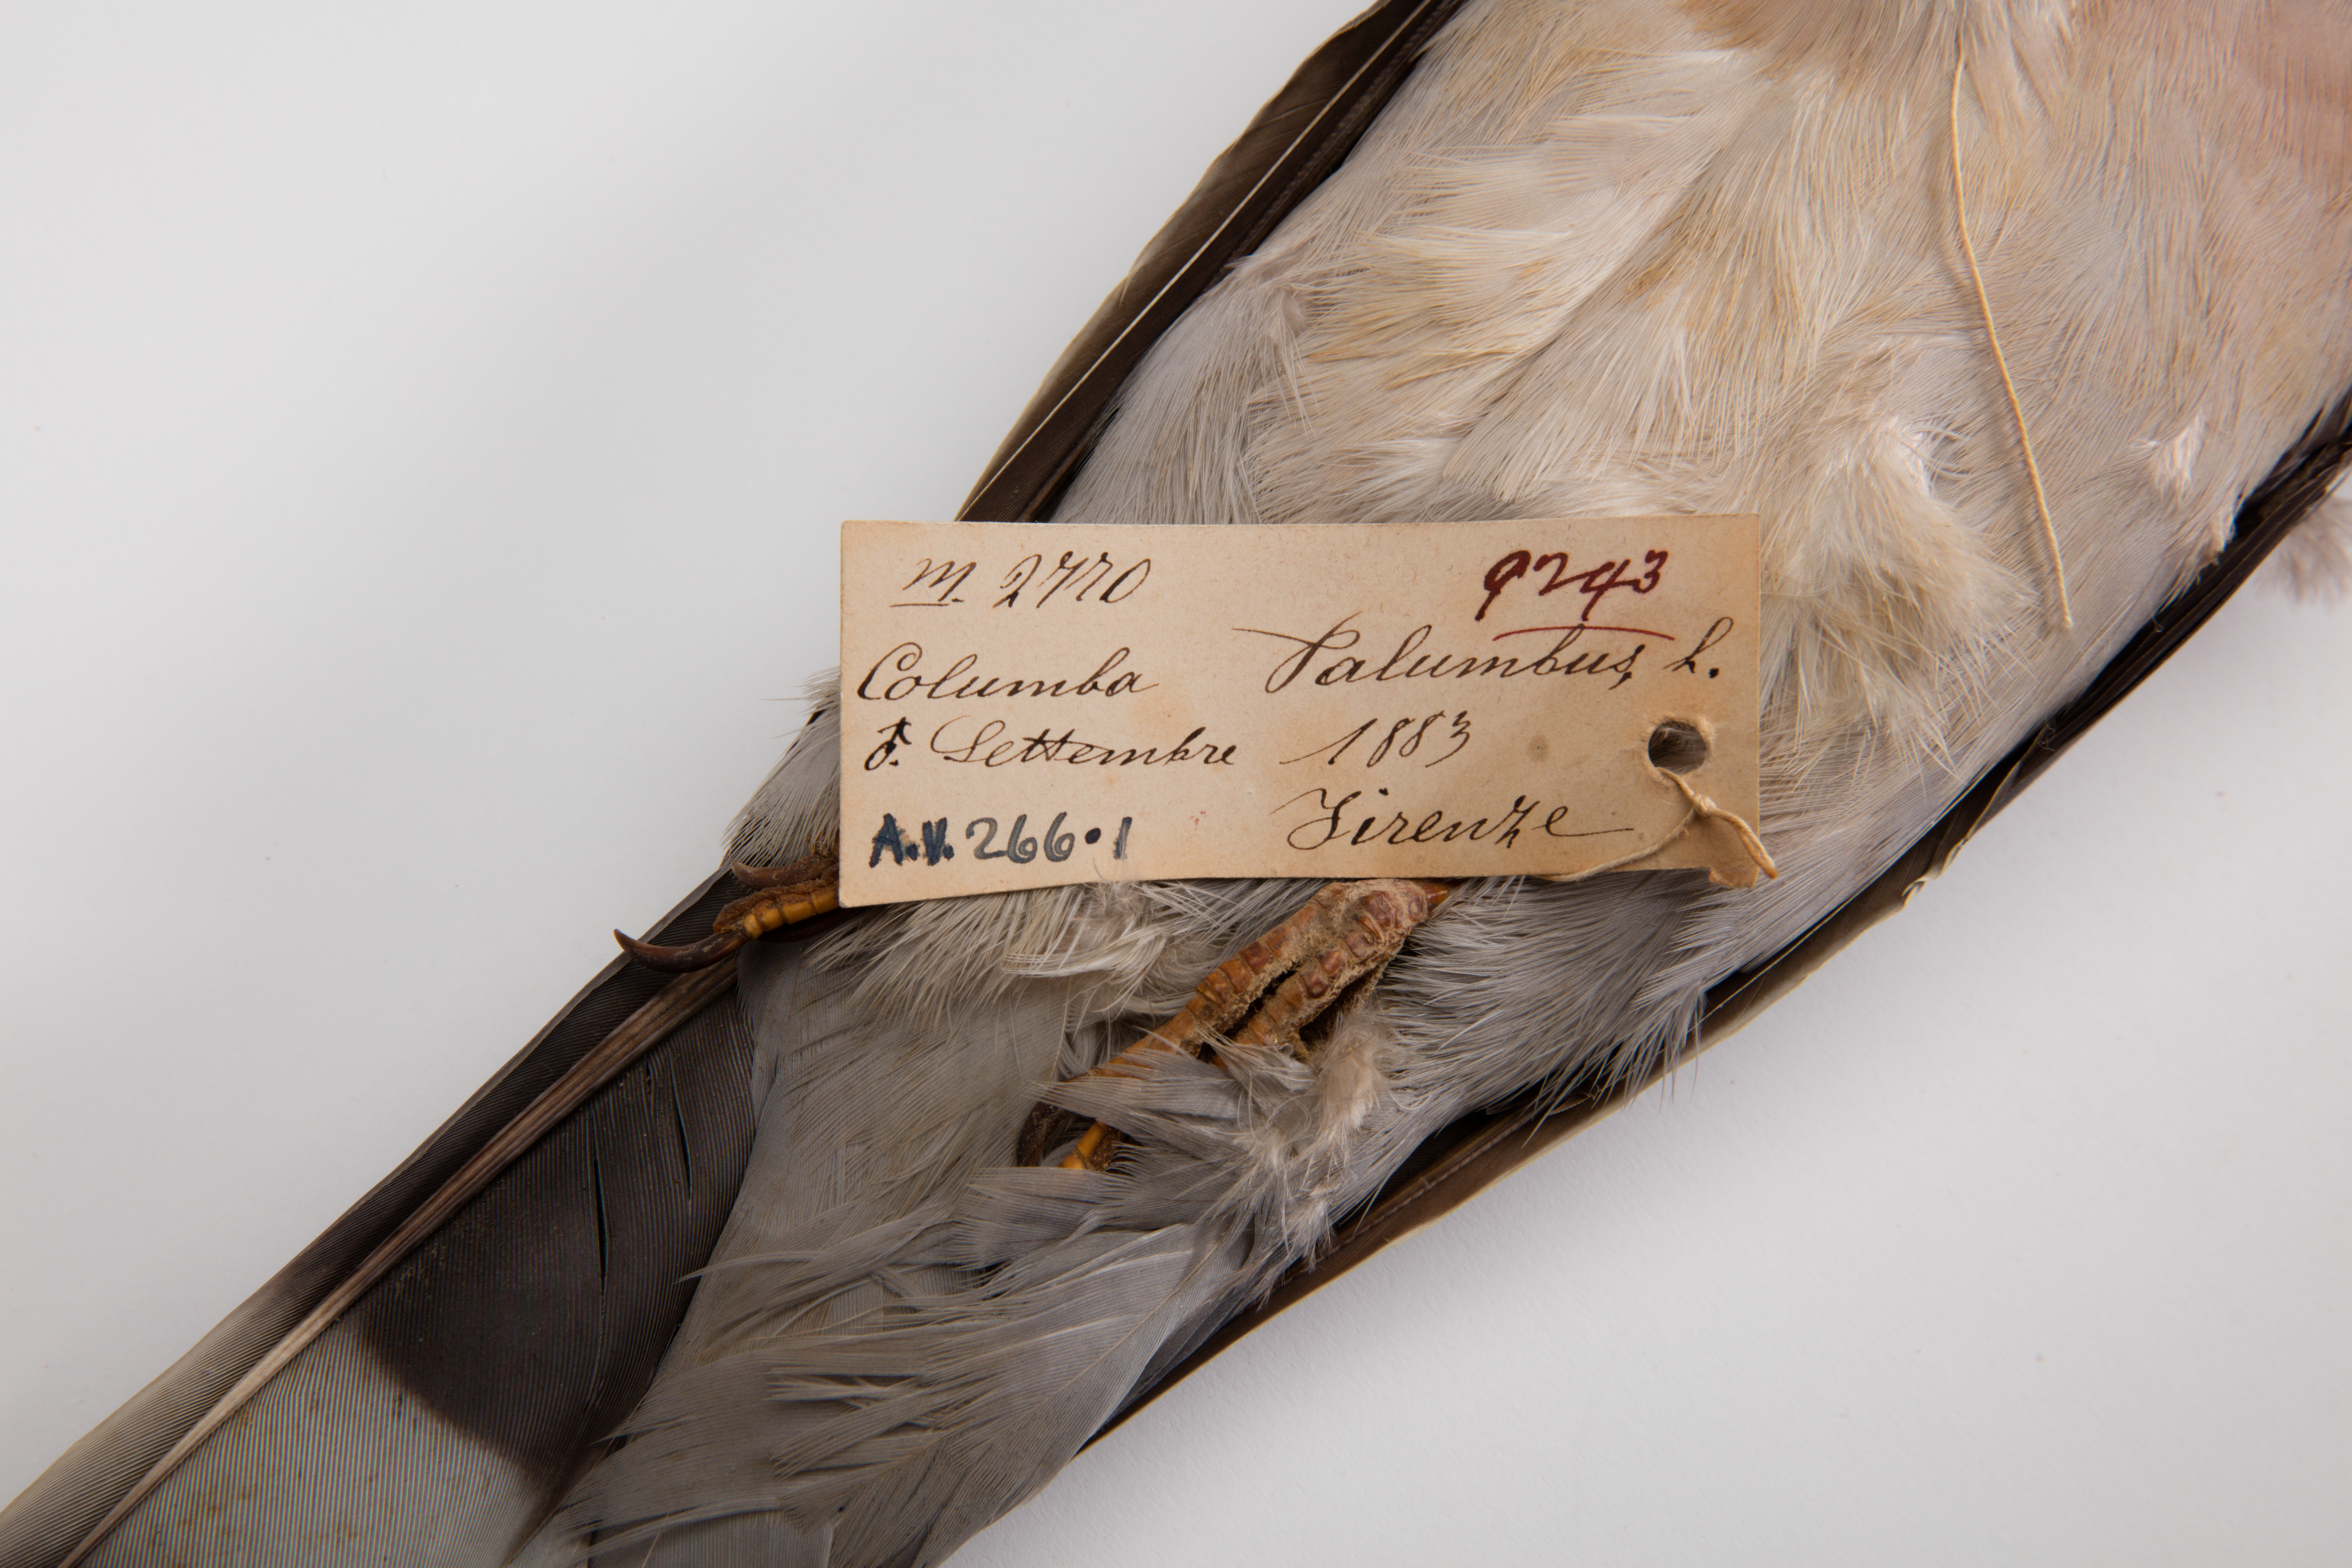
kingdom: Animalia
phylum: Chordata
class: Aves
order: Columbiformes
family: Columbidae
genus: Columba
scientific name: Columba palumbus
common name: Common wood pigeon
